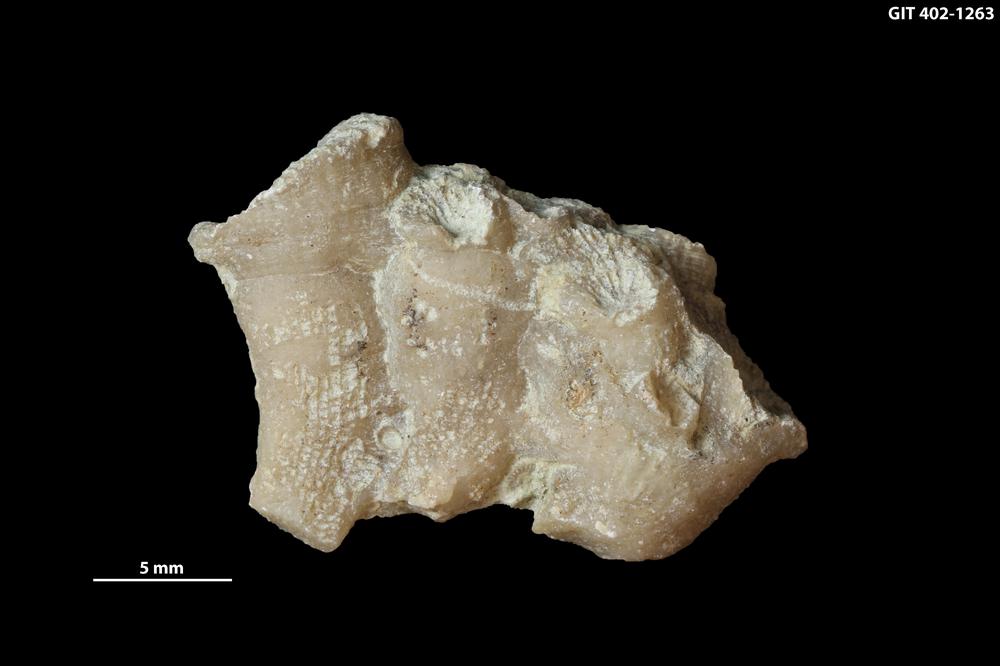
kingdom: Animalia
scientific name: Animalia
